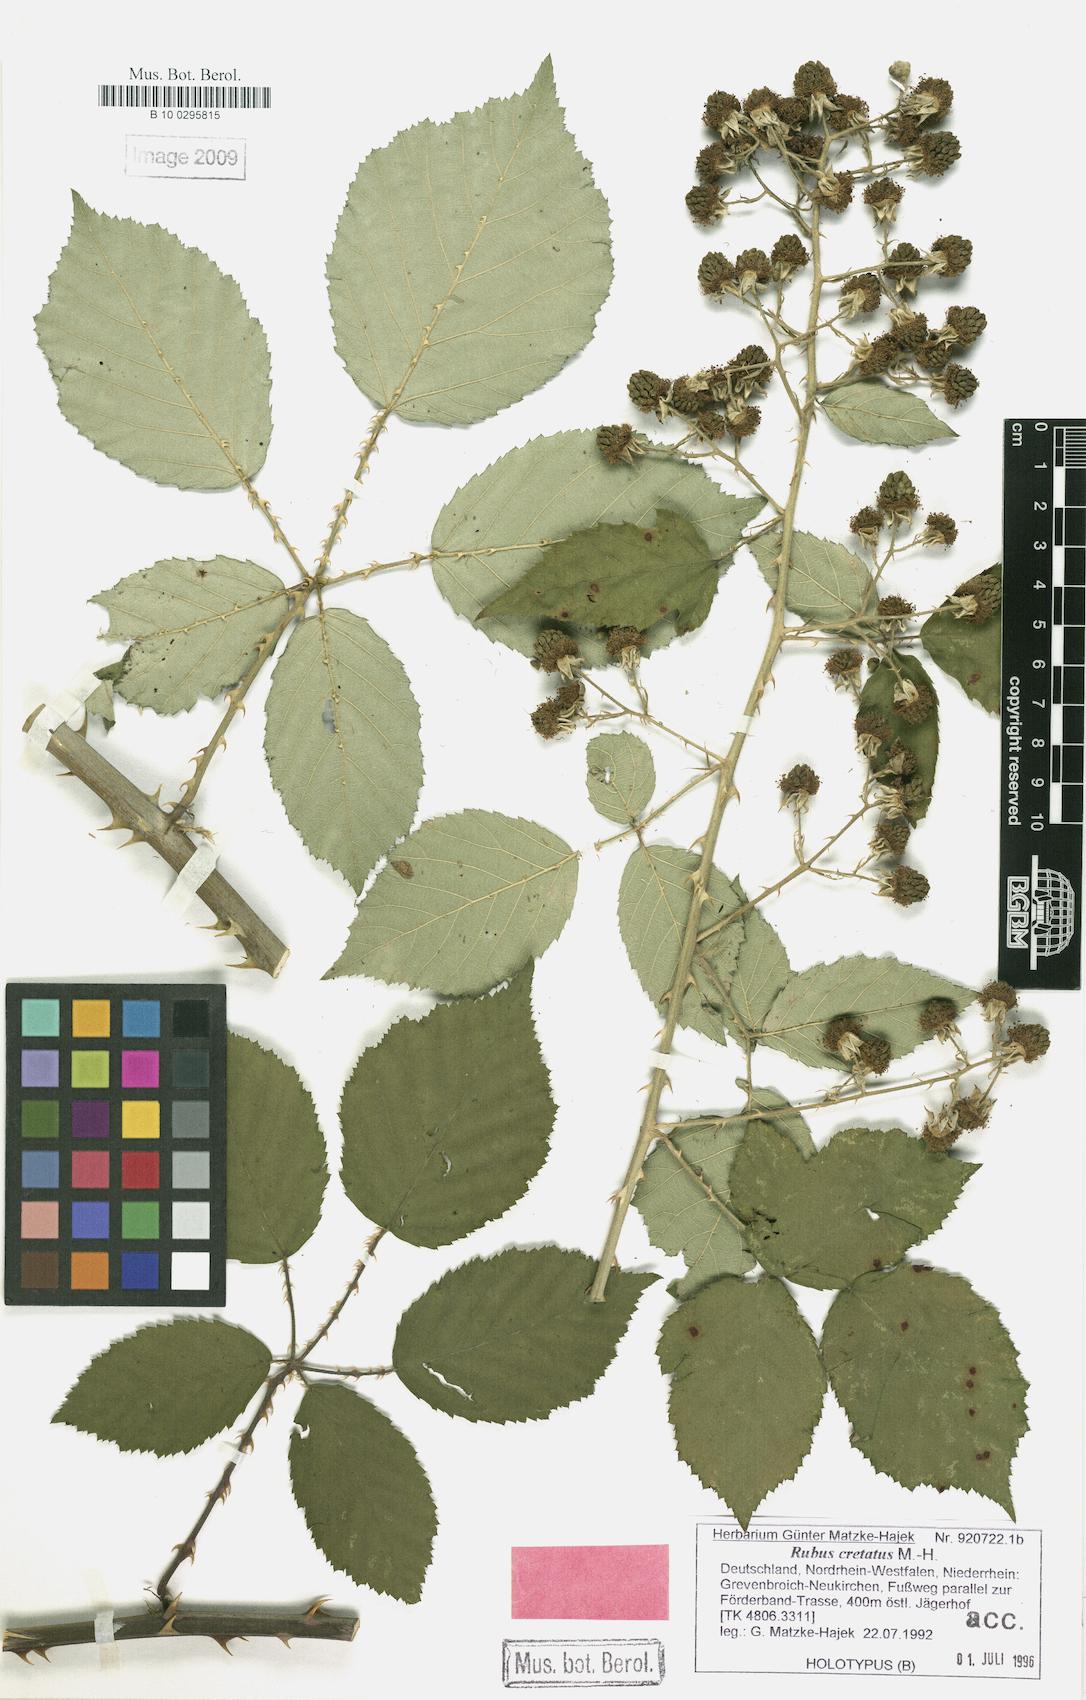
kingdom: Plantae
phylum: Tracheophyta
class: Magnoliopsida
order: Rosales
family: Rosaceae
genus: Rubus
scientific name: Rubus spina-curva
